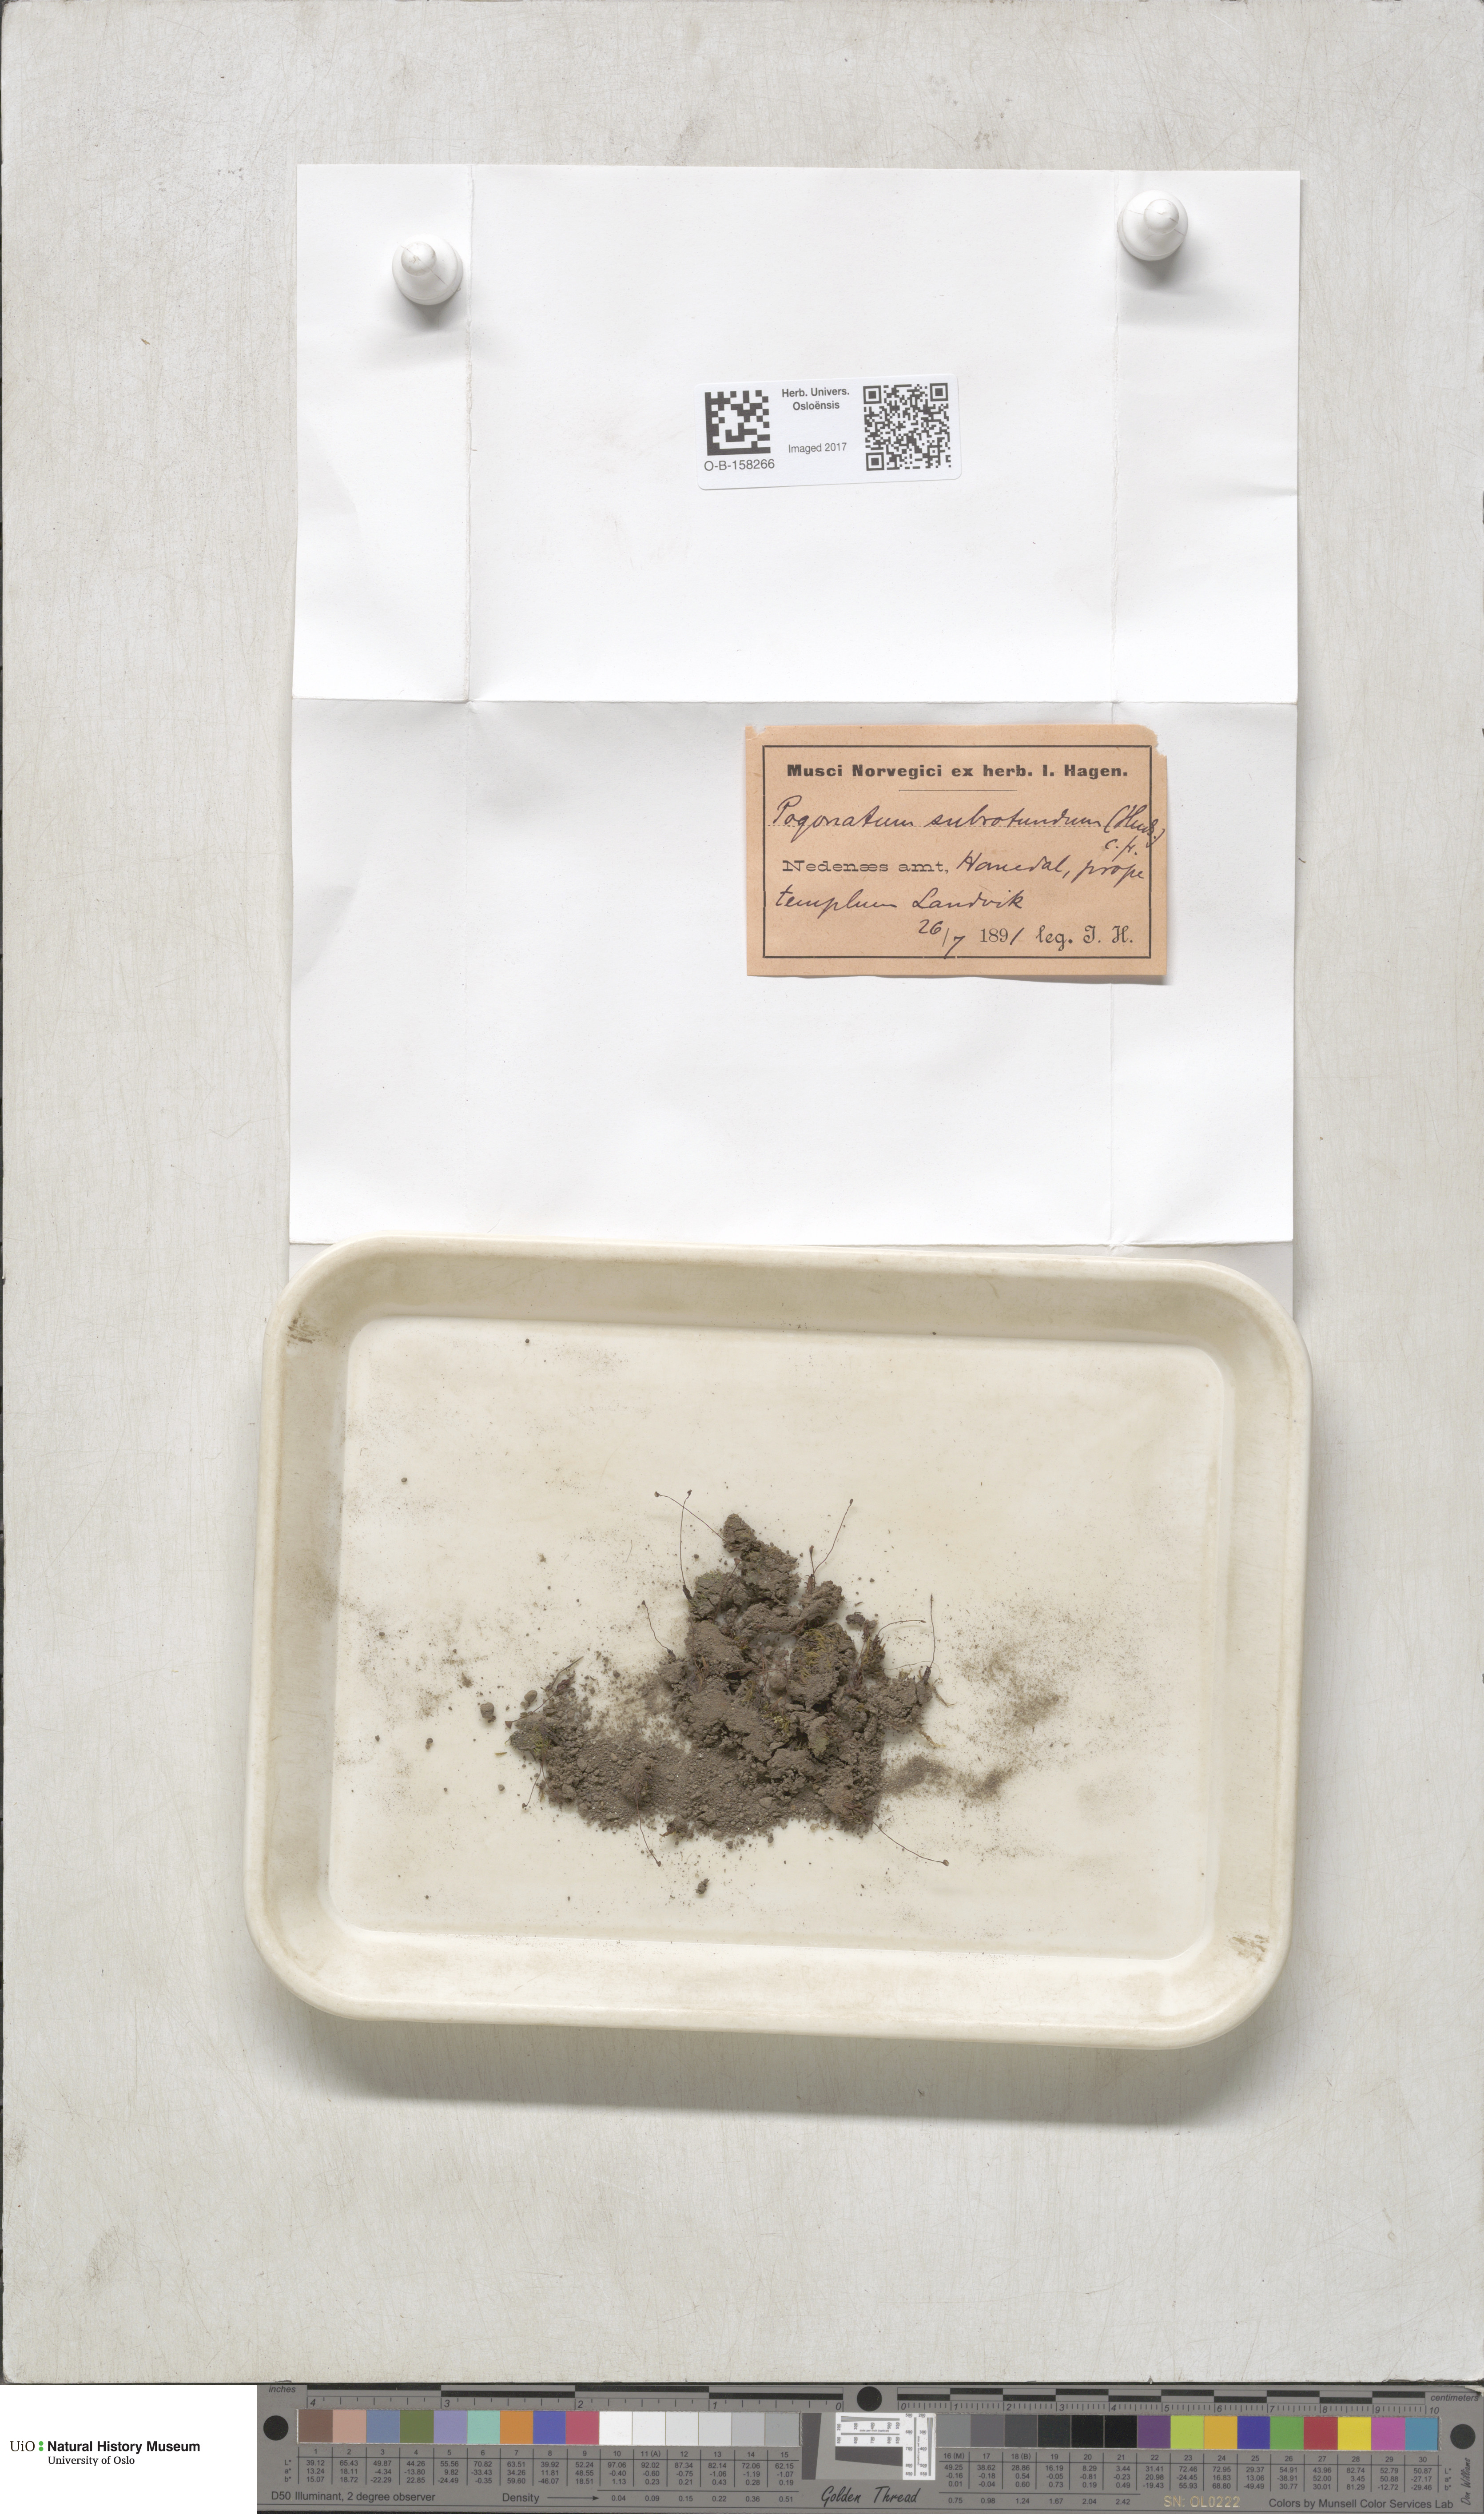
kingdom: Plantae
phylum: Bryophyta
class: Polytrichopsida
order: Polytrichales
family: Polytrichaceae
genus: Pogonatum
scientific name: Pogonatum nanum
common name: Dwarf haircap
